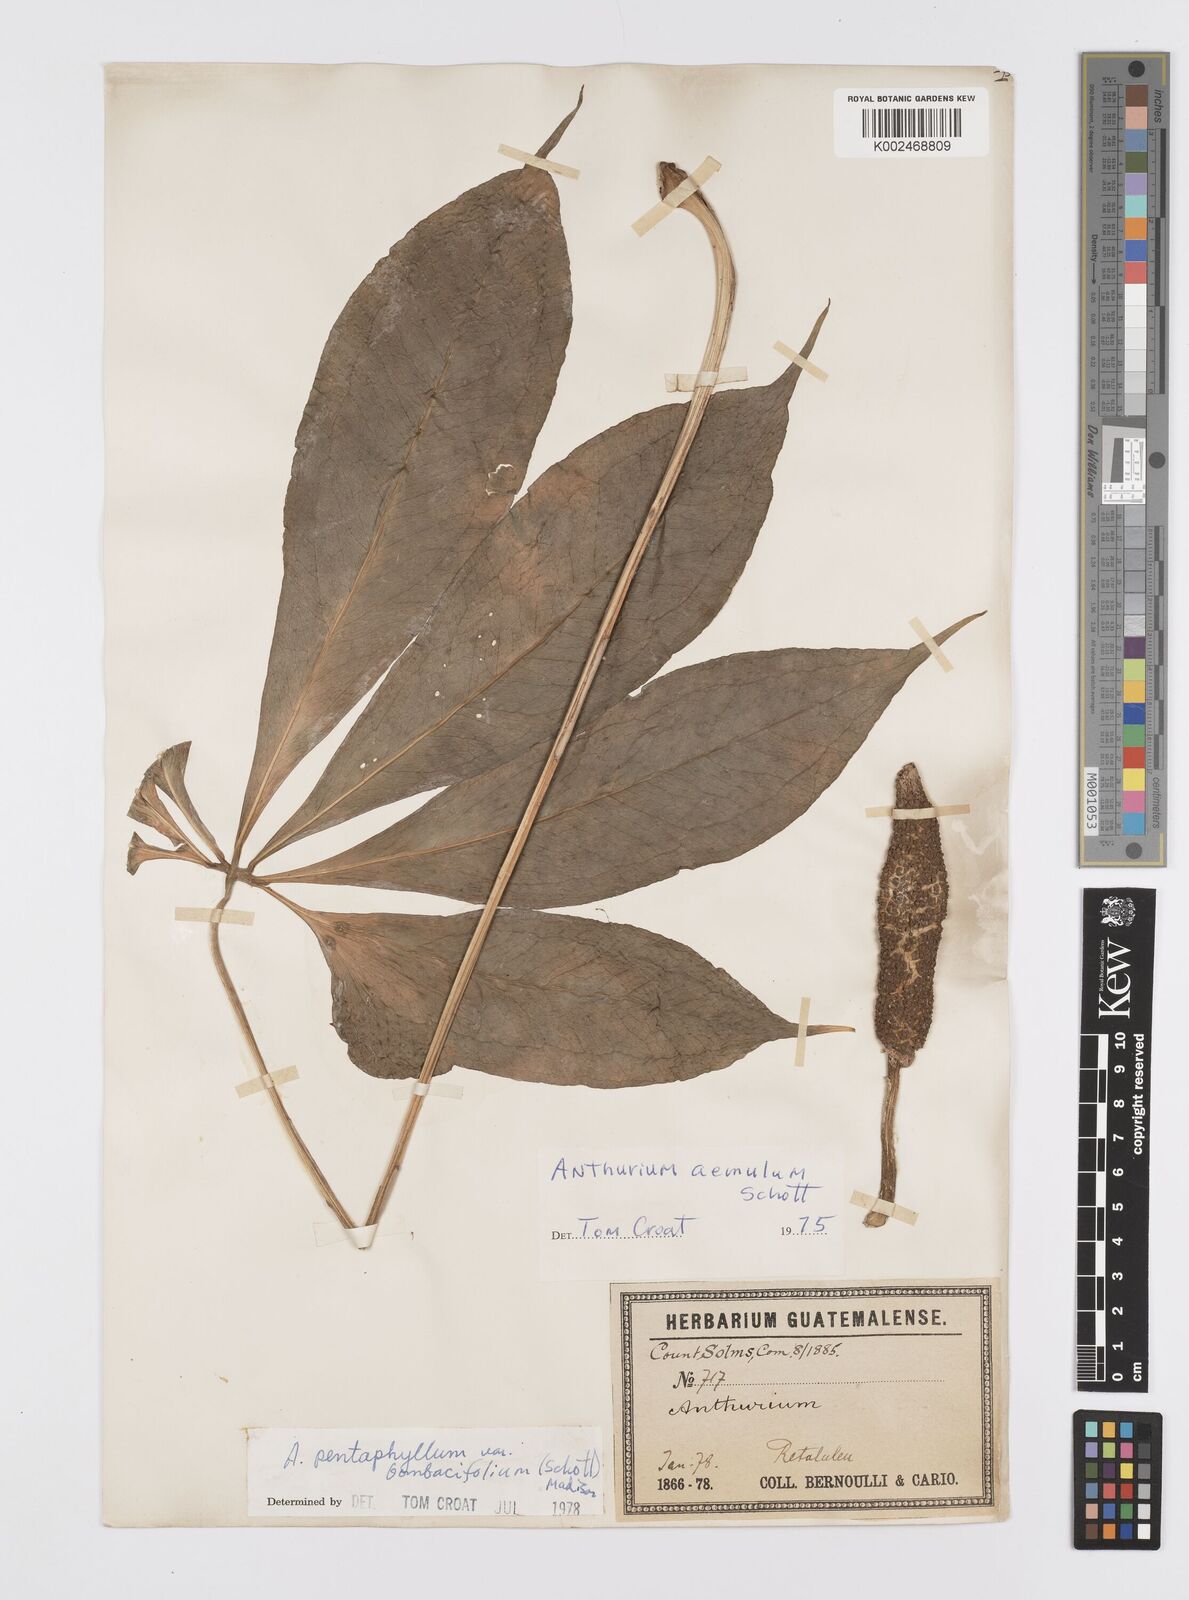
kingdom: Plantae
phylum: Tracheophyta
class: Liliopsida
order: Alismatales
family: Araceae
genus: Anthurium
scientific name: Anthurium pentaphyllum
